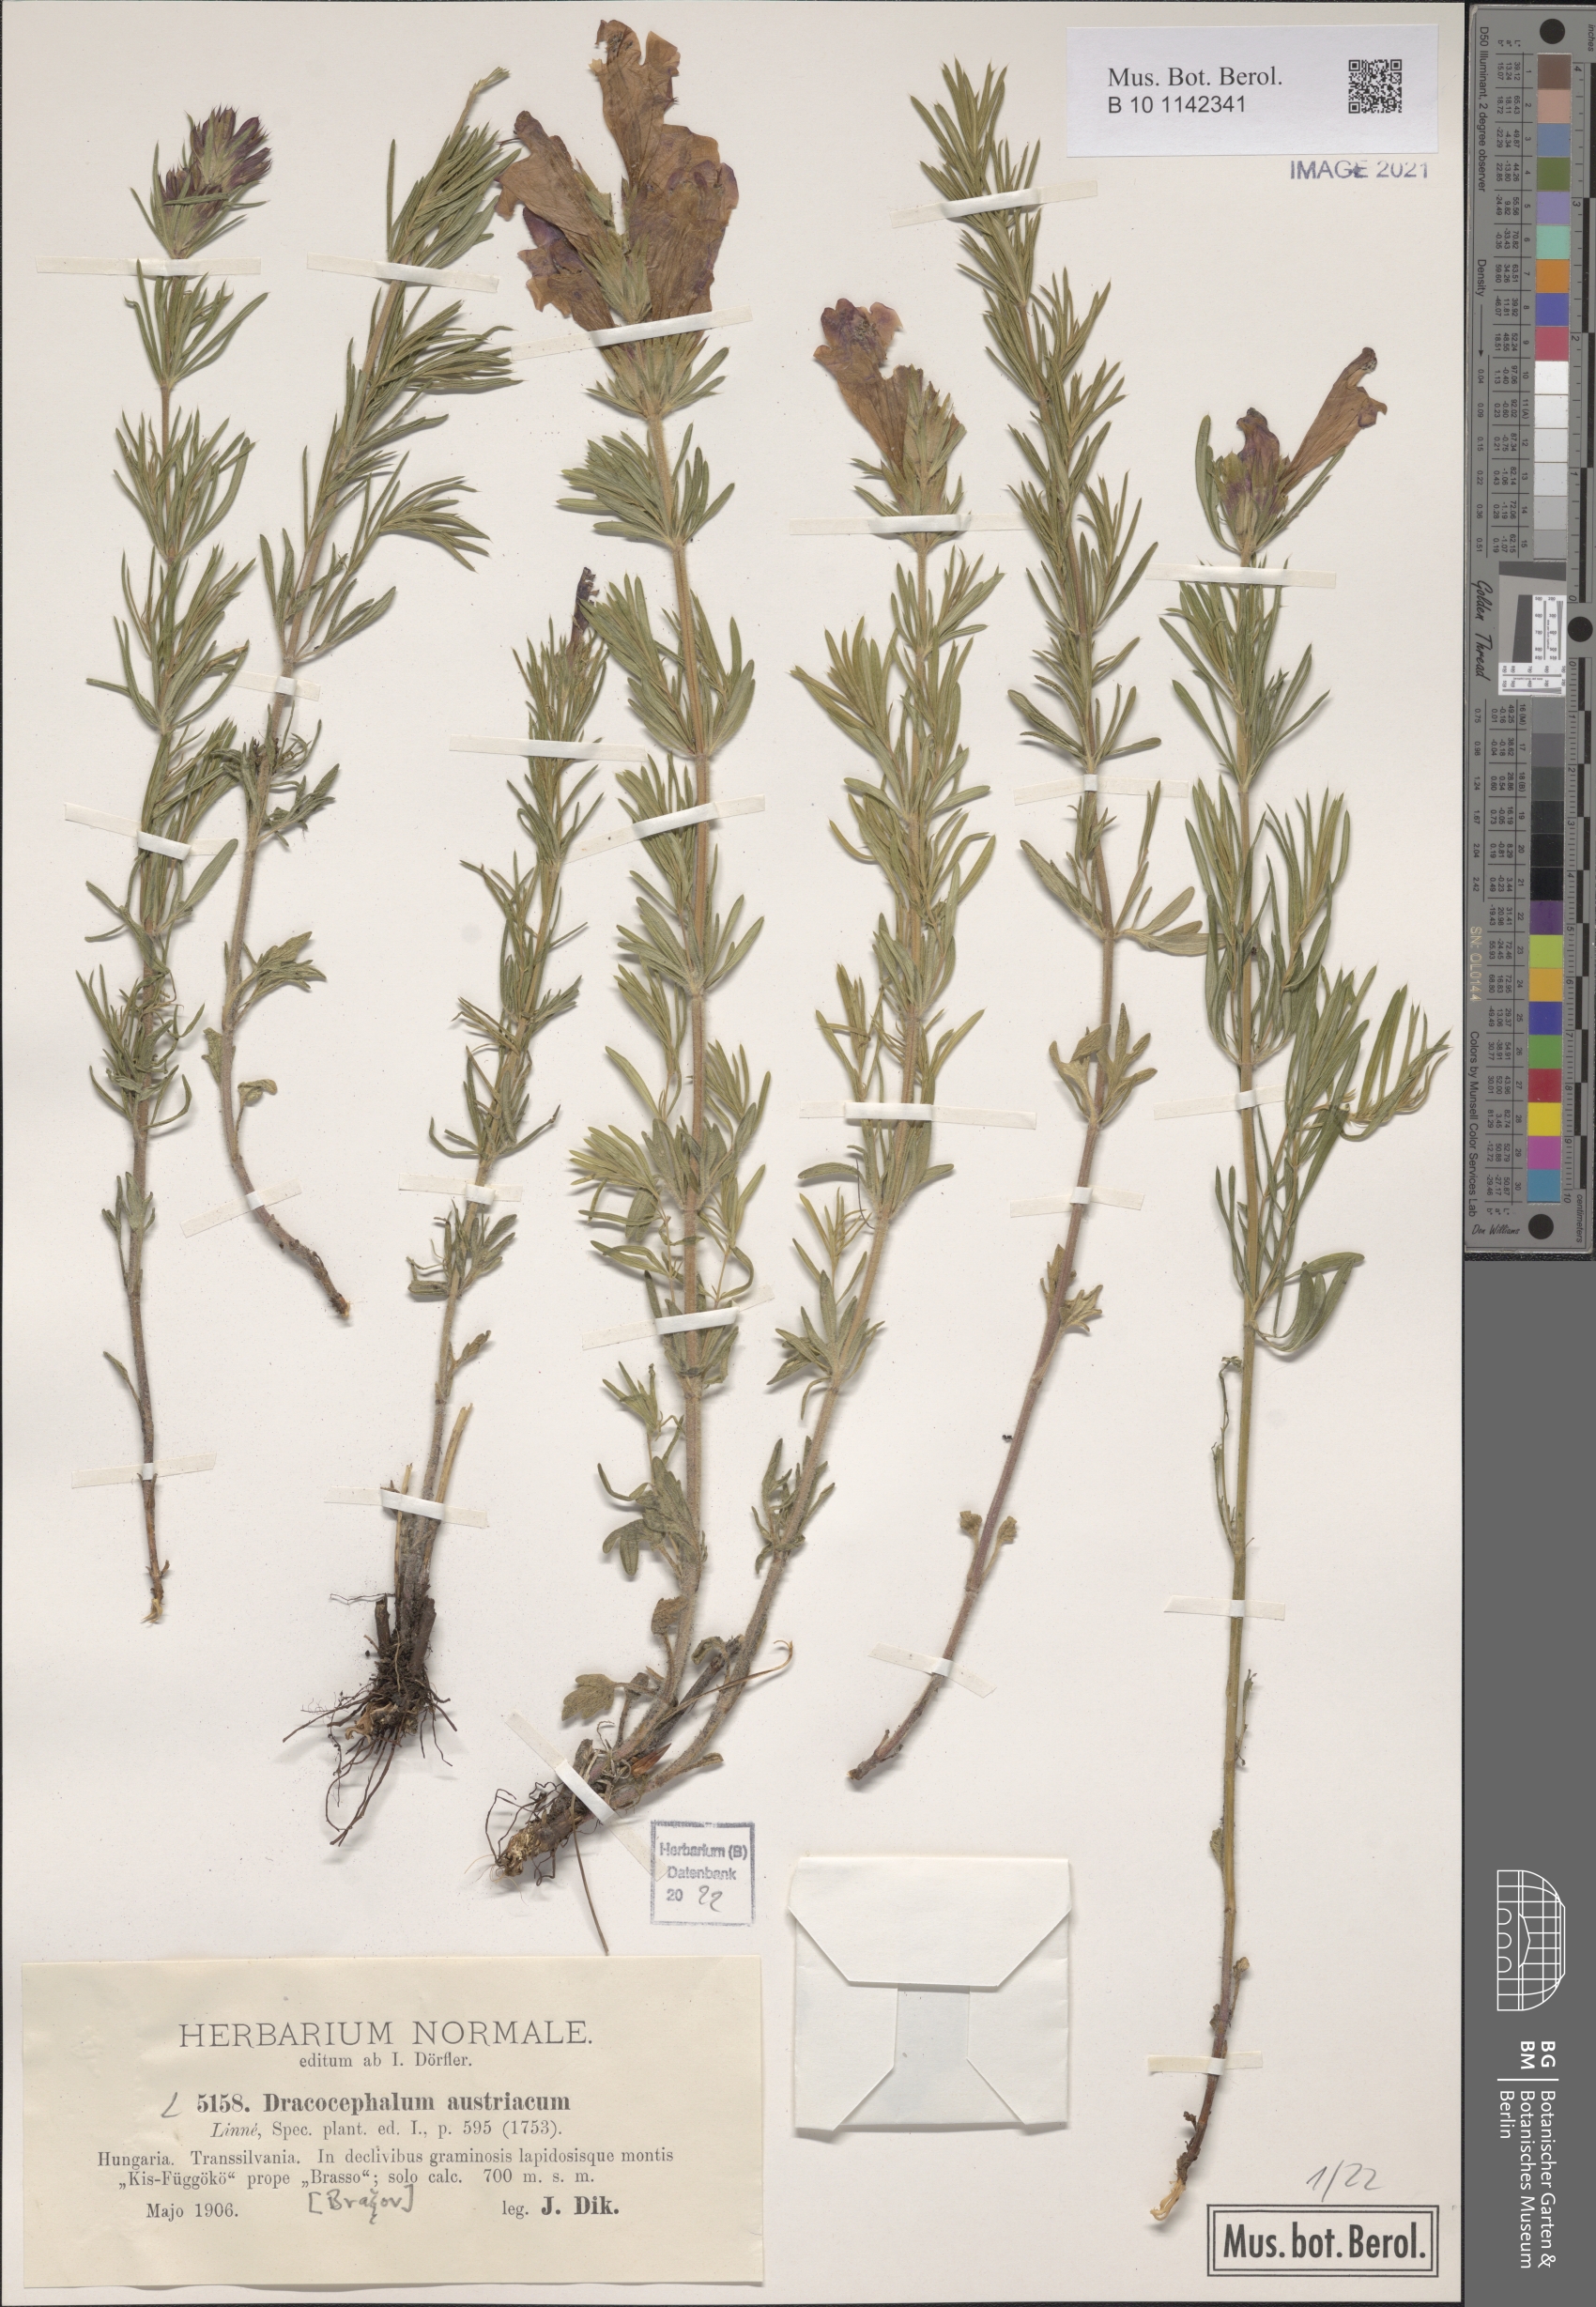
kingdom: Plantae
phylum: Tracheophyta
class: Magnoliopsida
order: Lamiales
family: Lamiaceae
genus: Dracocephalum
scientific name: Dracocephalum austriacum
